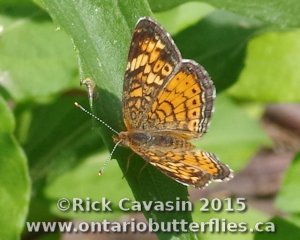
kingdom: Animalia
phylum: Arthropoda
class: Insecta
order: Lepidoptera
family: Nymphalidae
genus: Phyciodes
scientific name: Phyciodes tharos
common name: Pearl Crescent
